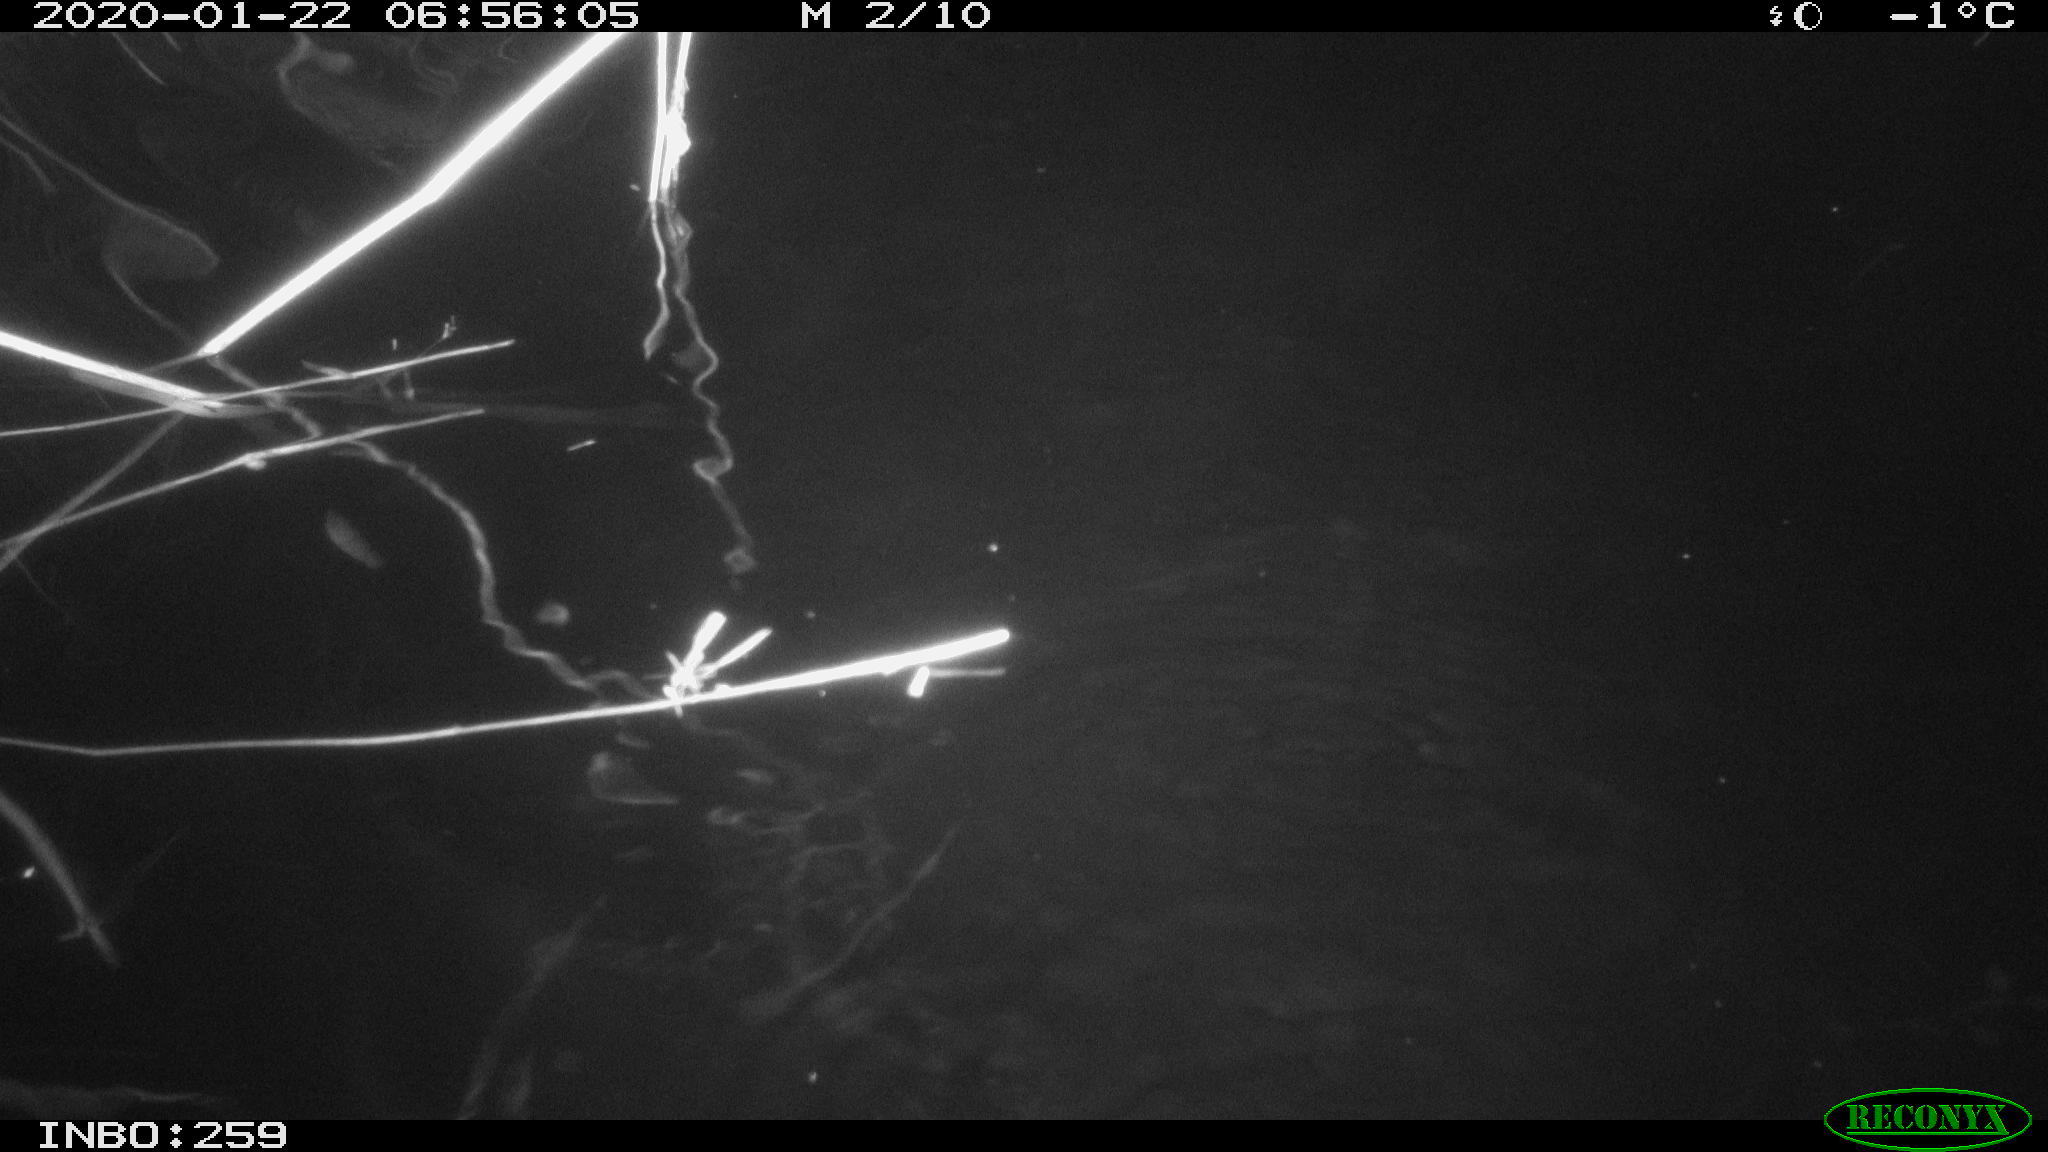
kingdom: Animalia
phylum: Chordata
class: Mammalia
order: Rodentia
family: Cricetidae
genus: Ondatra
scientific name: Ondatra zibethicus
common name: Muskrat
